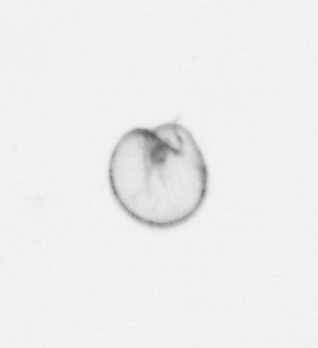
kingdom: Chromista
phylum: Myzozoa
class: Dinophyceae
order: Noctilucales
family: Noctilucaceae
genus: Noctiluca
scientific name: Noctiluca scintillans
